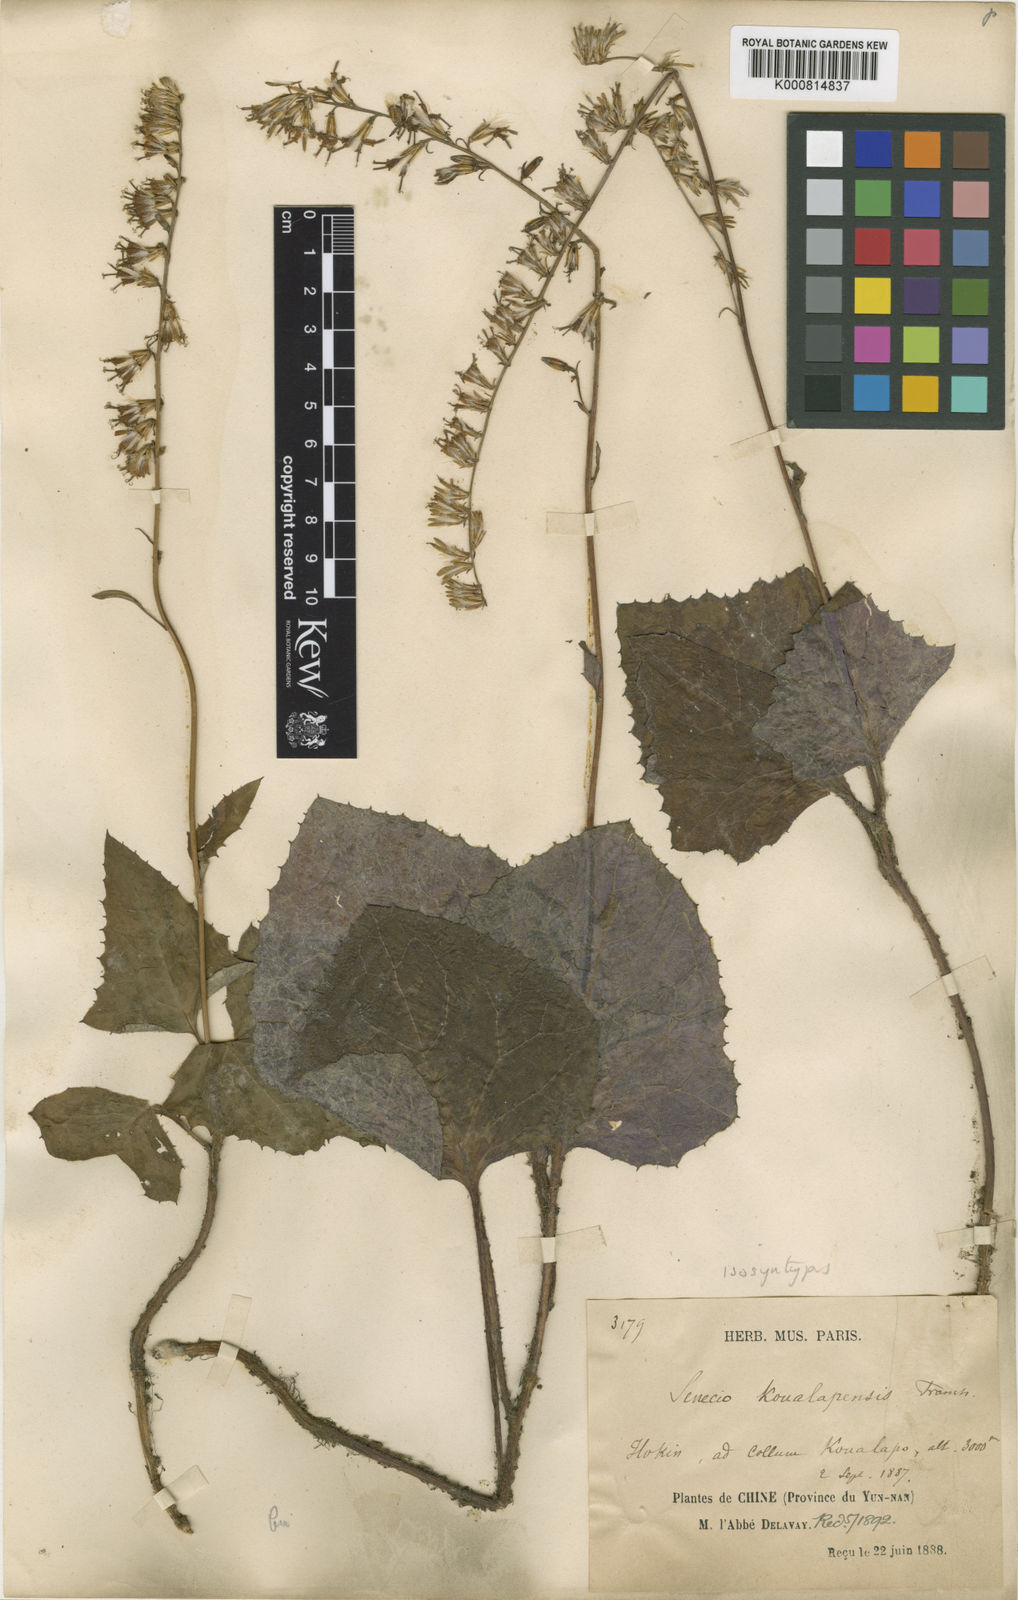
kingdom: Plantae
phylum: Tracheophyta
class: Magnoliopsida
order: Asterales
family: Asteraceae
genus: Parasenecio
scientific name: Parasenecio koualapensis
